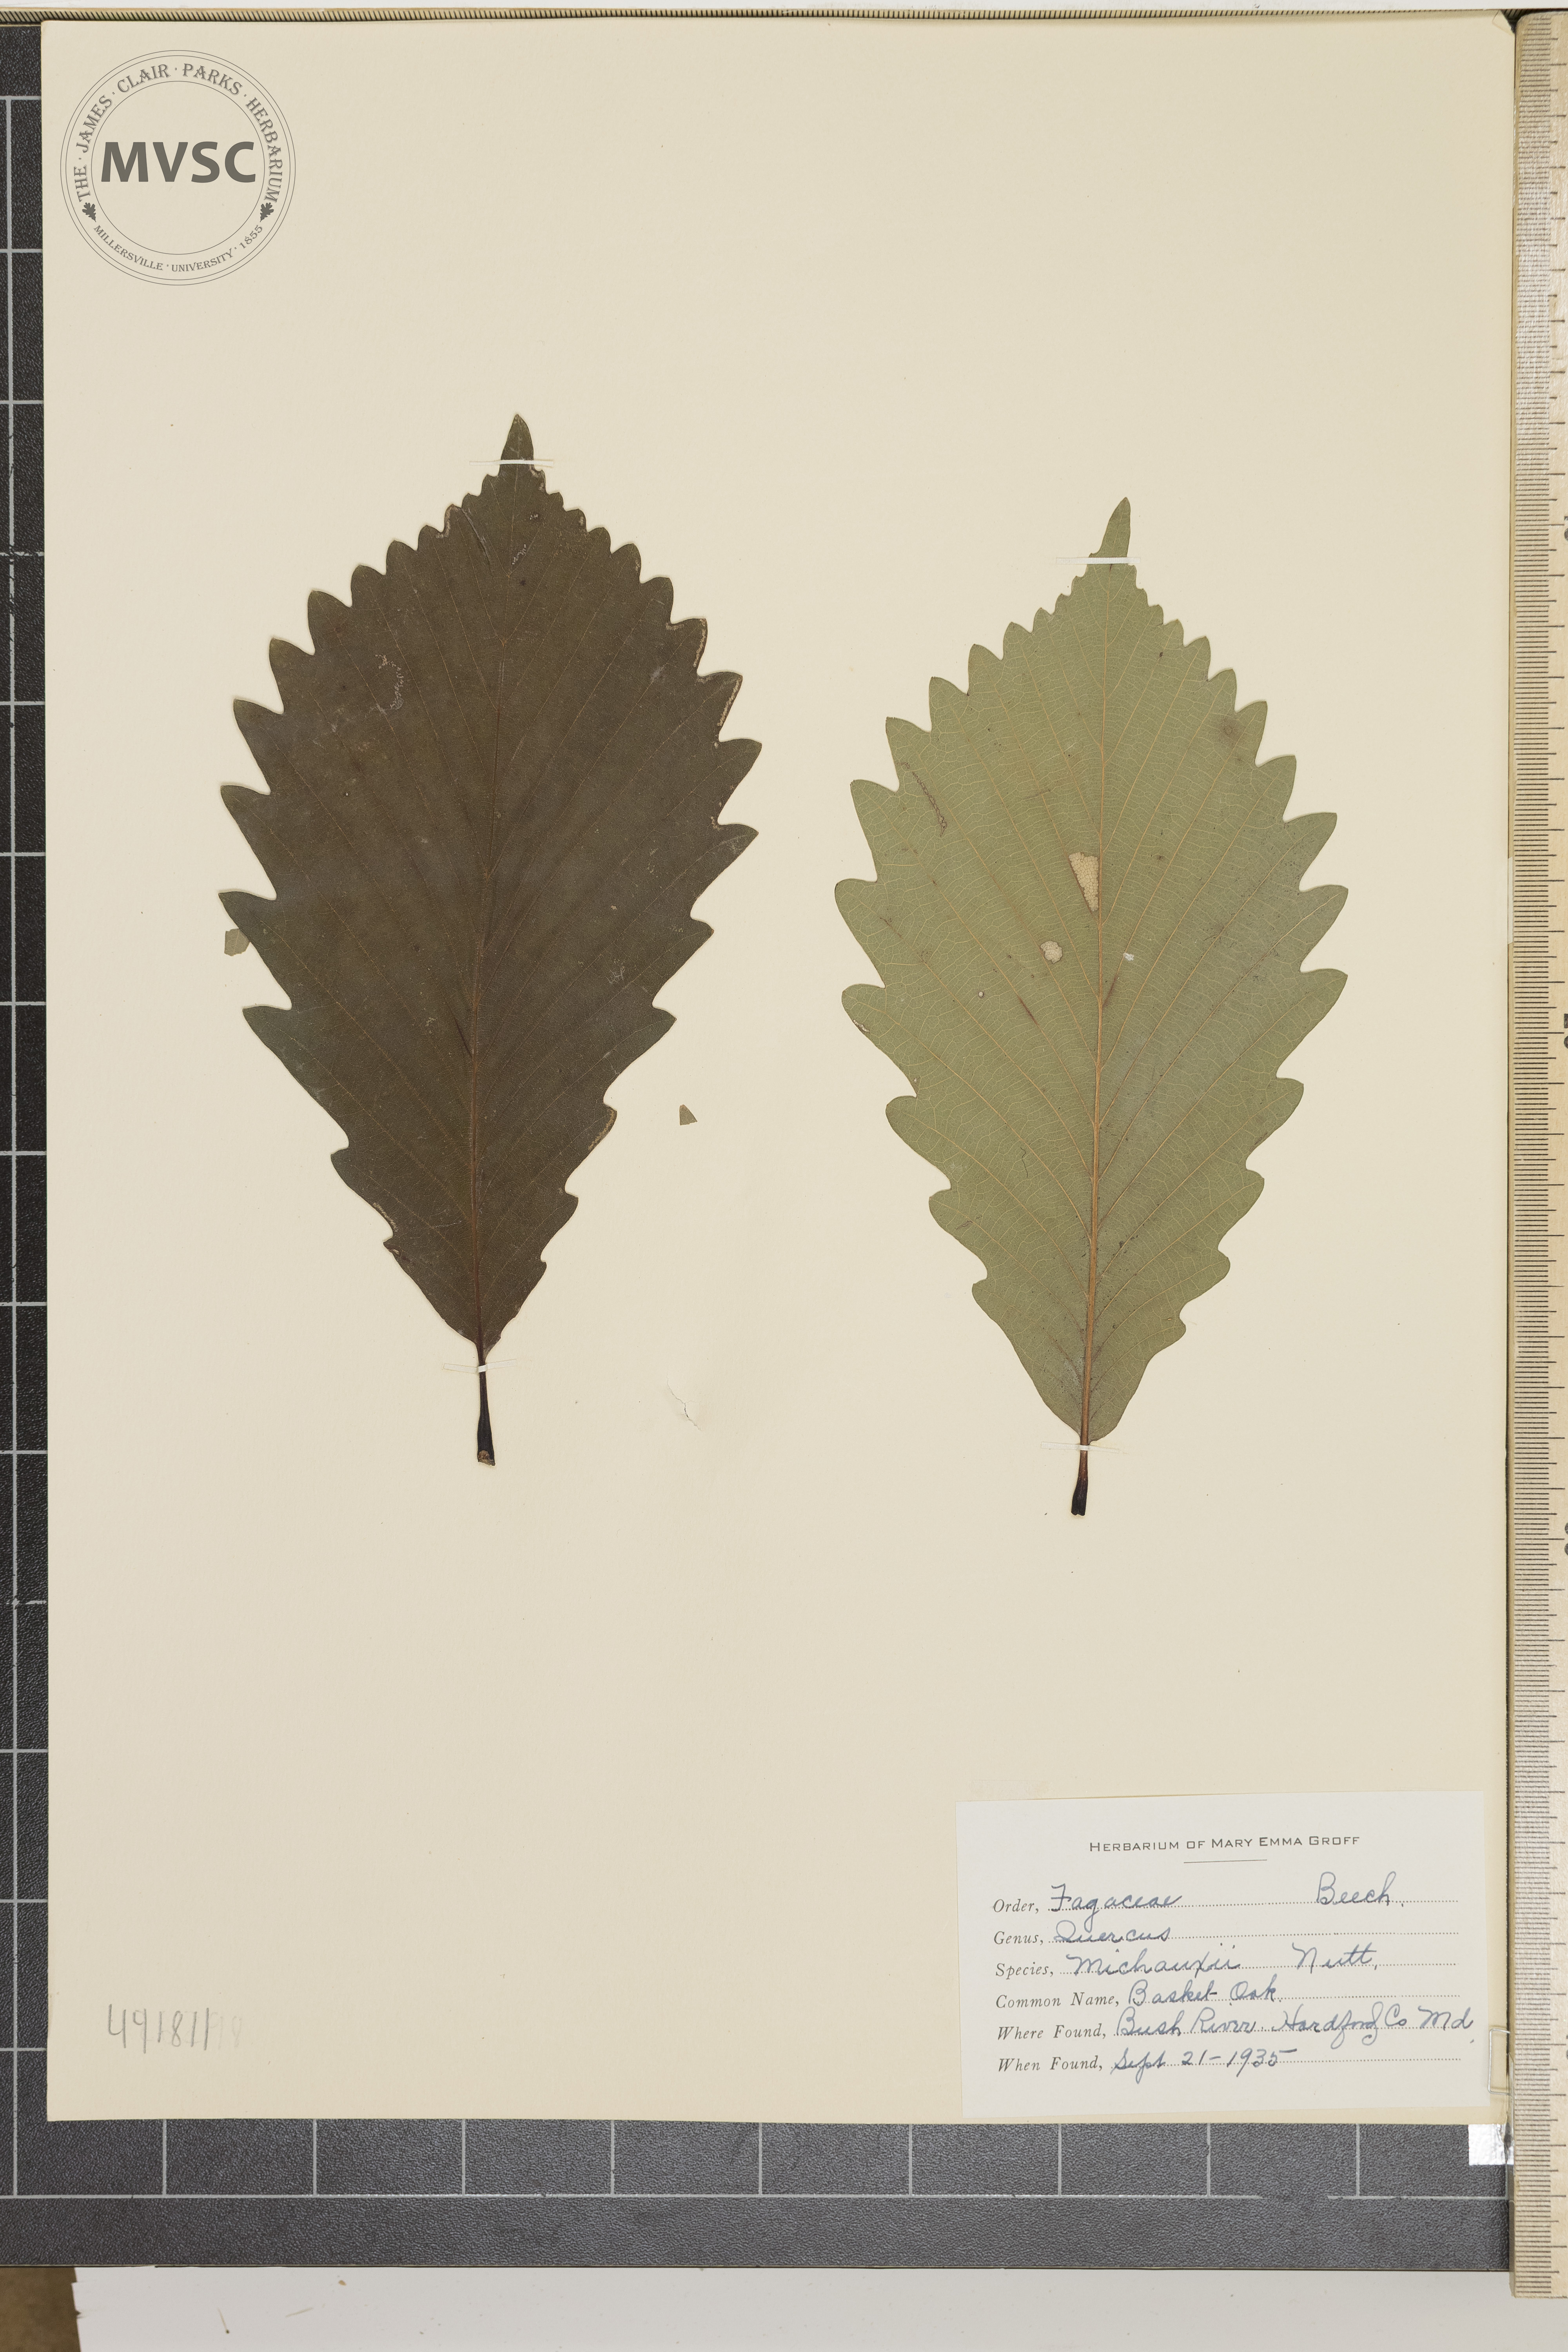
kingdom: Plantae
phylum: Tracheophyta
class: Magnoliopsida
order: Fagales
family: Fagaceae
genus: Quercus
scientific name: Quercus michauxii
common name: Basket oak
